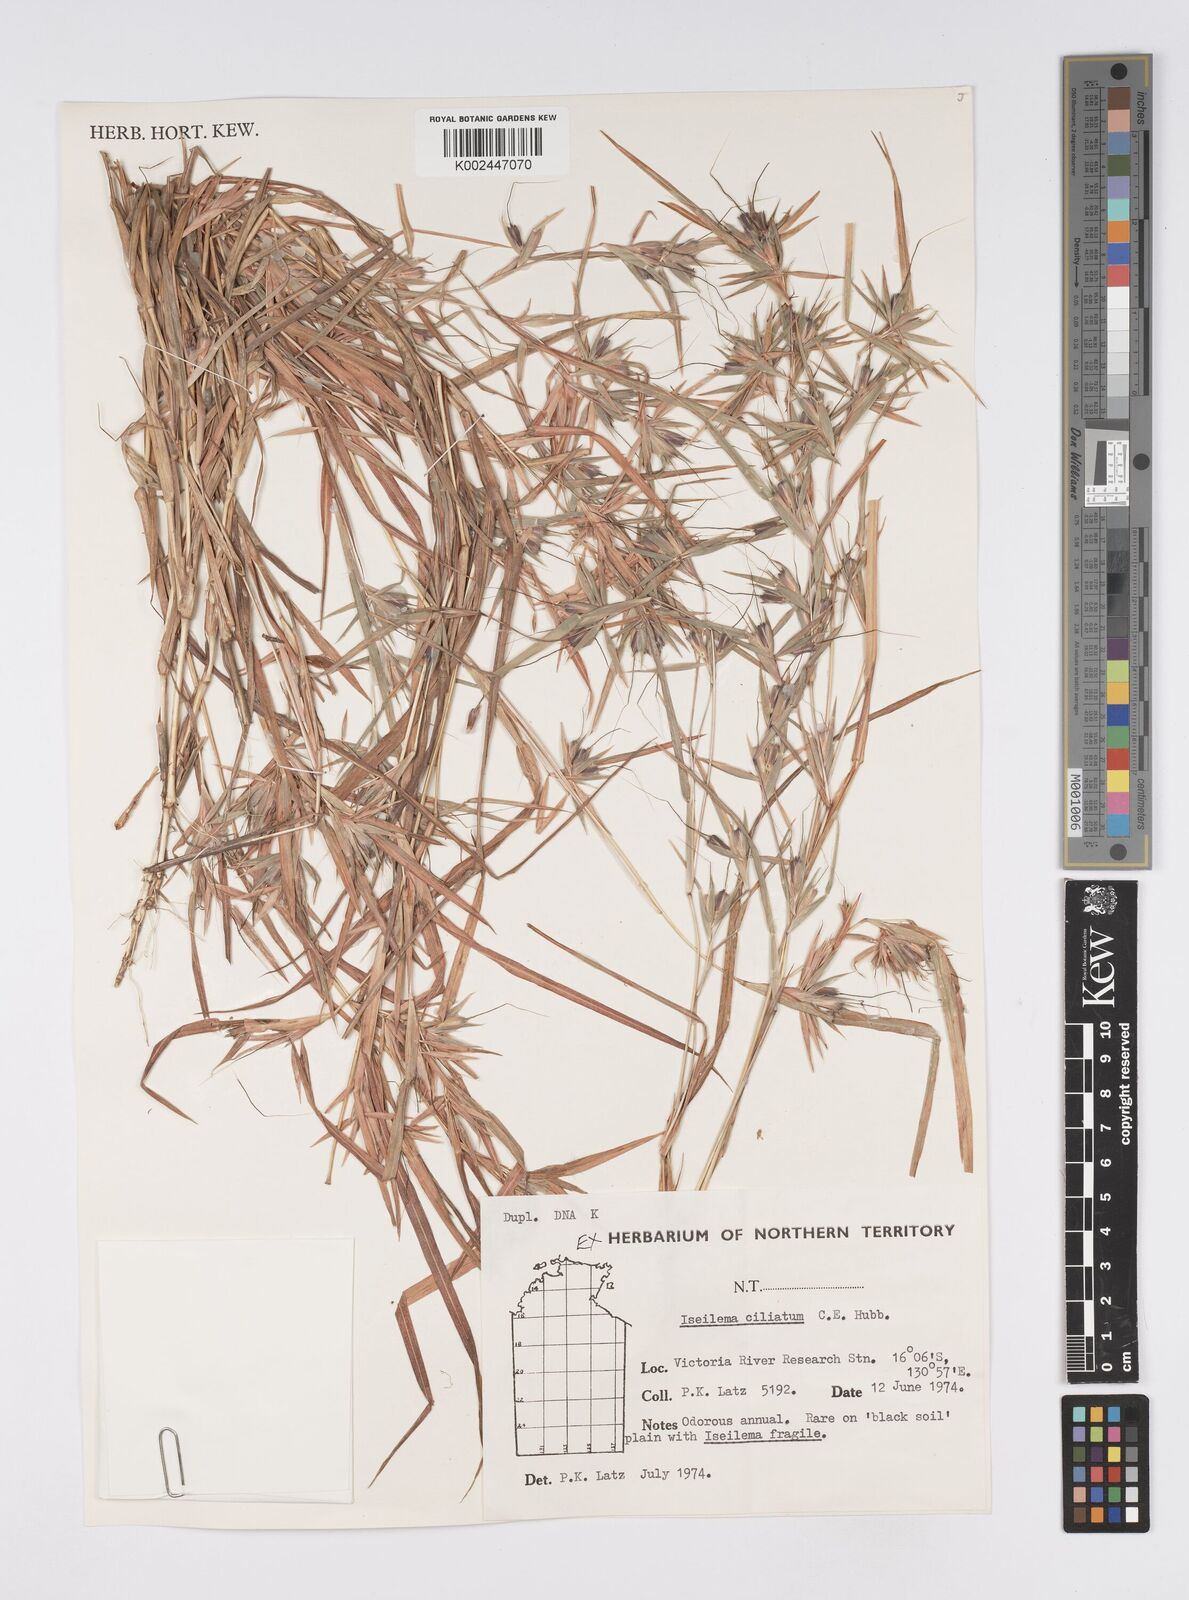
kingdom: Plantae
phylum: Tracheophyta
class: Liliopsida
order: Poales
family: Poaceae
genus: Iseilema
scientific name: Iseilema ciliatum
